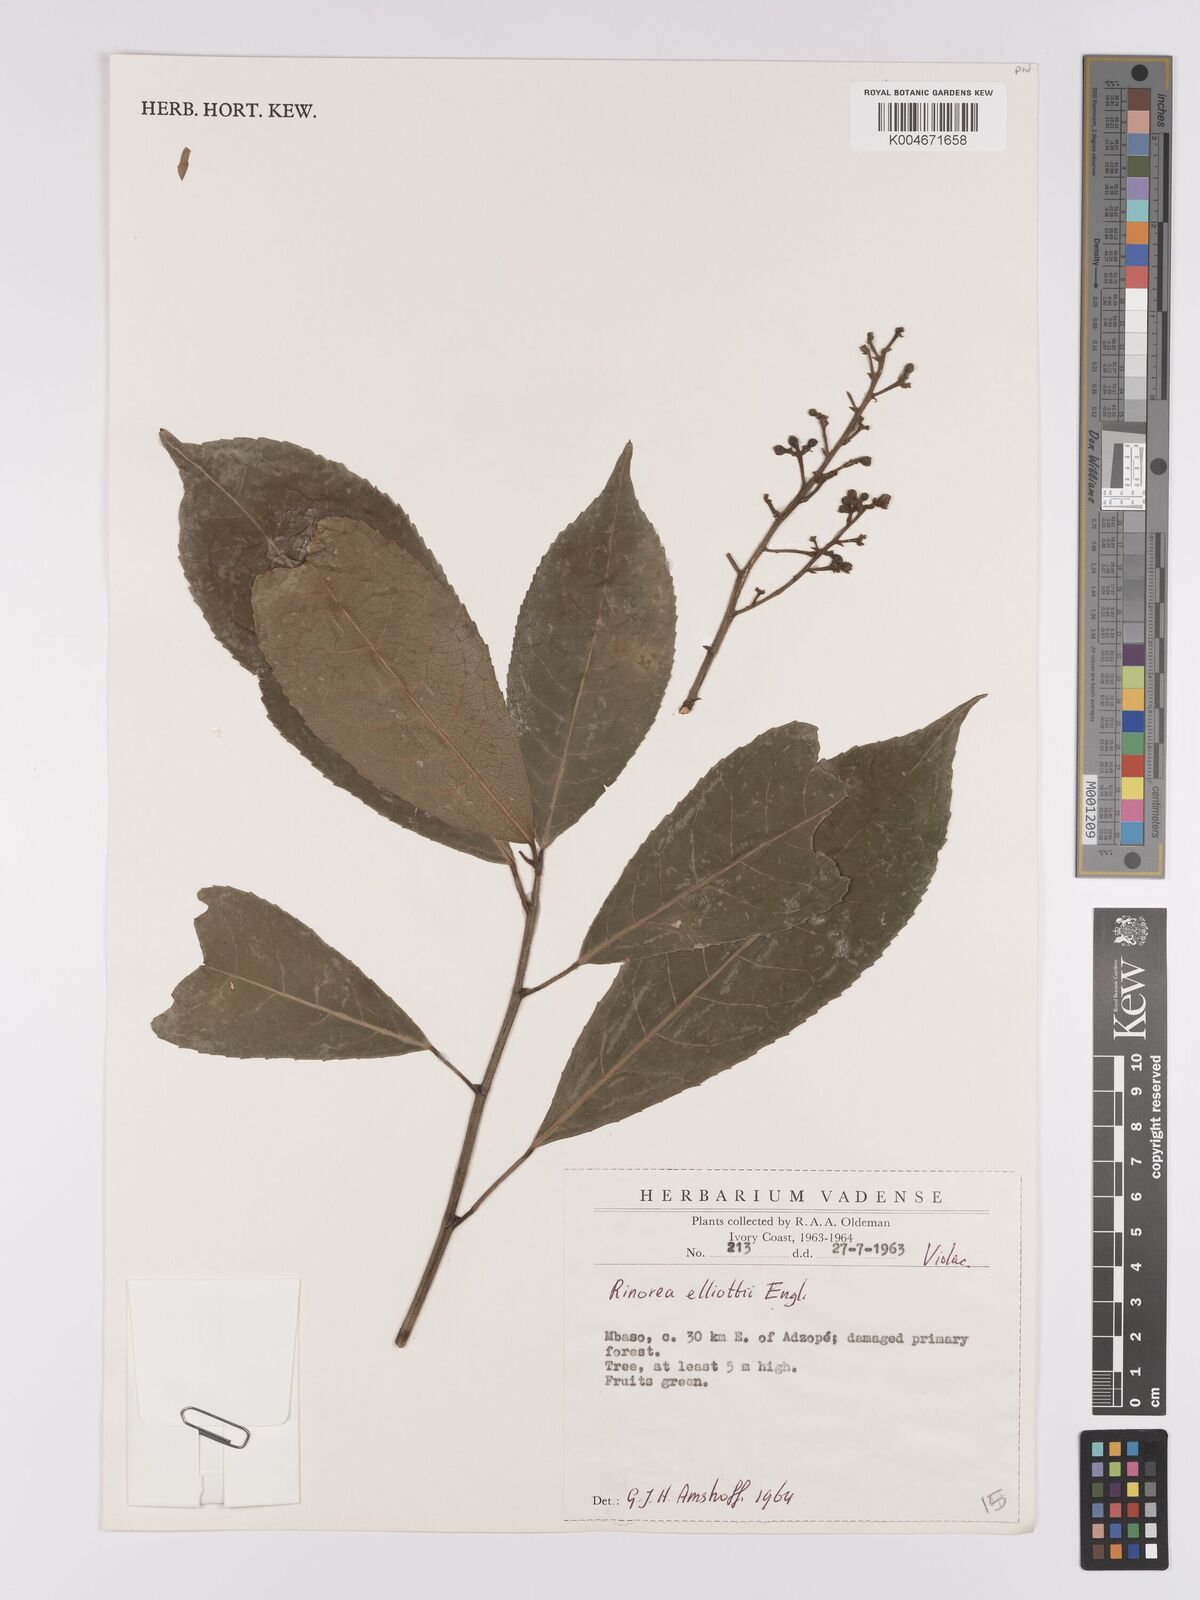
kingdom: Plantae
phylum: Tracheophyta
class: Magnoliopsida
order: Malpighiales
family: Violaceae
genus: Rinorea
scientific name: Rinorea welwitschii
